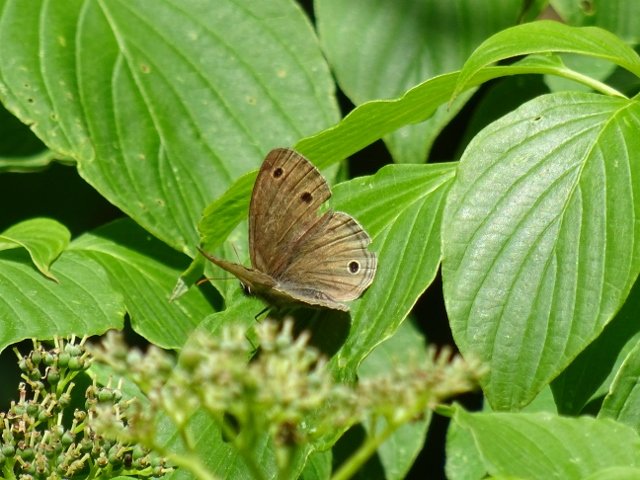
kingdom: Animalia
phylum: Arthropoda
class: Insecta
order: Lepidoptera
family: Nymphalidae
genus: Euptychia
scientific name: Euptychia cymela
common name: Little Wood Satyr
